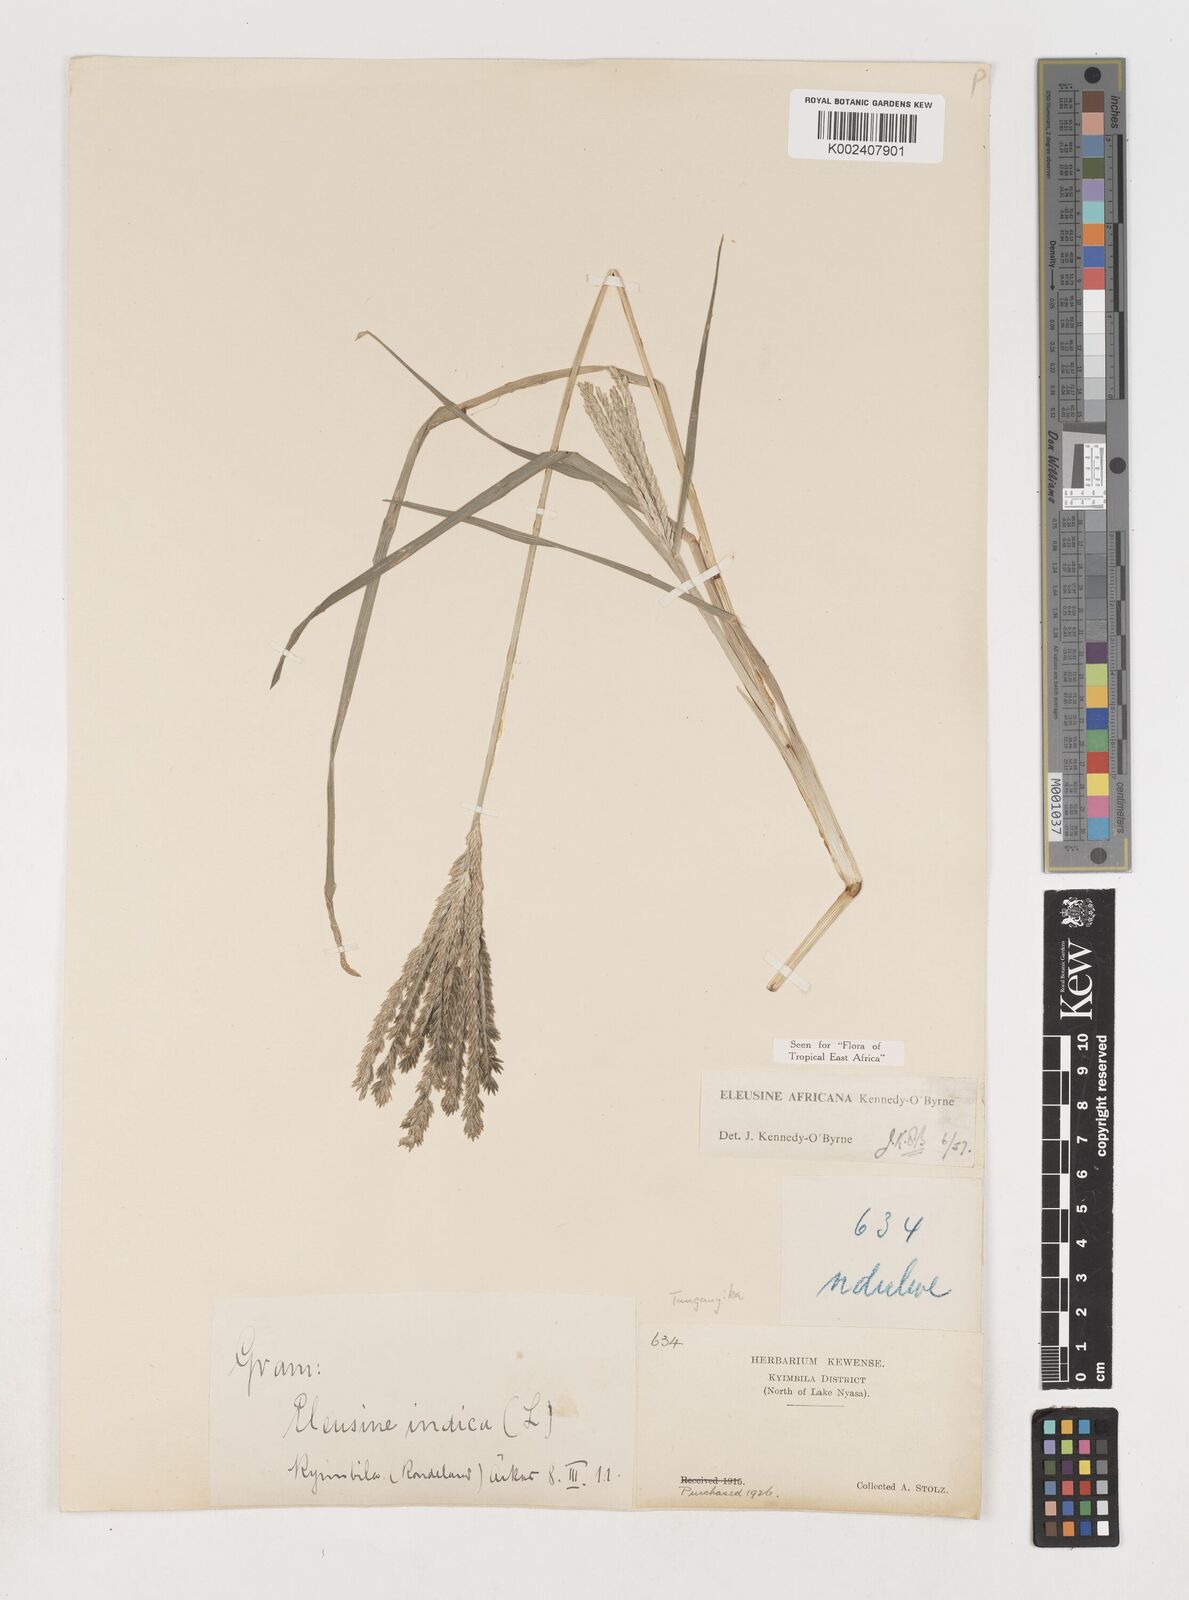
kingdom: Plantae
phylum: Tracheophyta
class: Liliopsida
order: Poales
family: Poaceae
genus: Eleusine
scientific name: Eleusine africana
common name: Wild african finger millet
